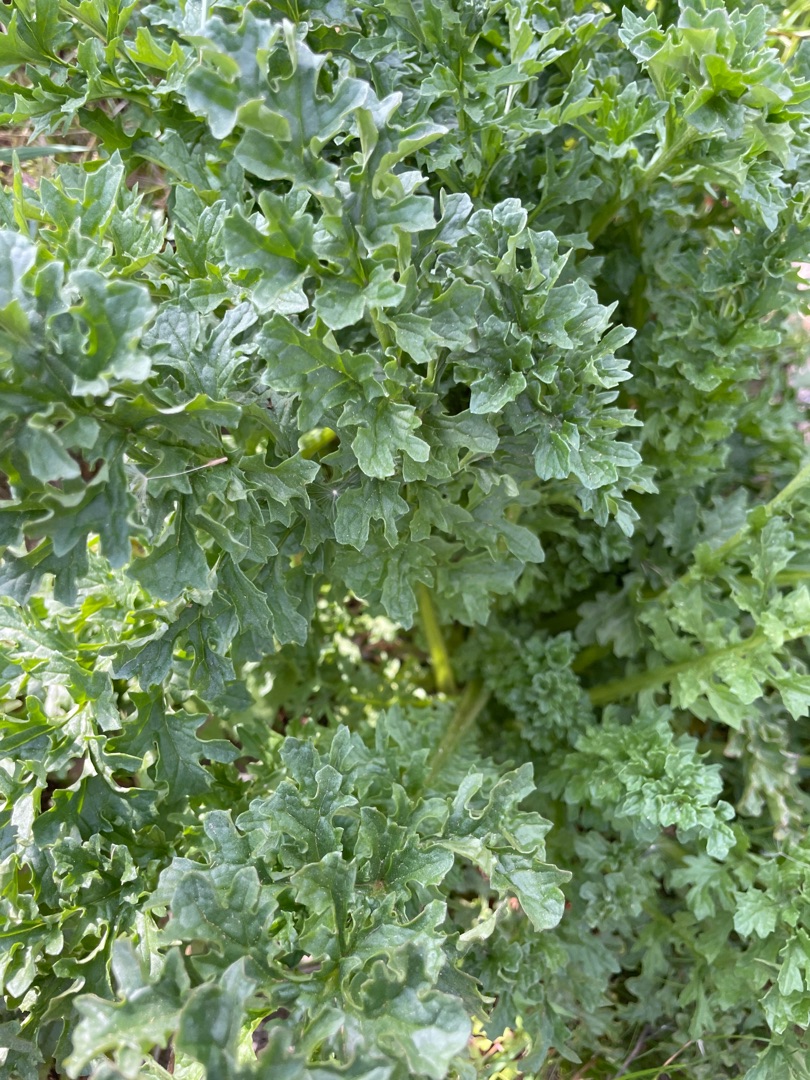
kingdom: Plantae
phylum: Tracheophyta
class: Magnoliopsida
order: Asterales
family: Asteraceae
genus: Jacobaea
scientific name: Jacobaea vulgaris
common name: Eng-brandbæger
